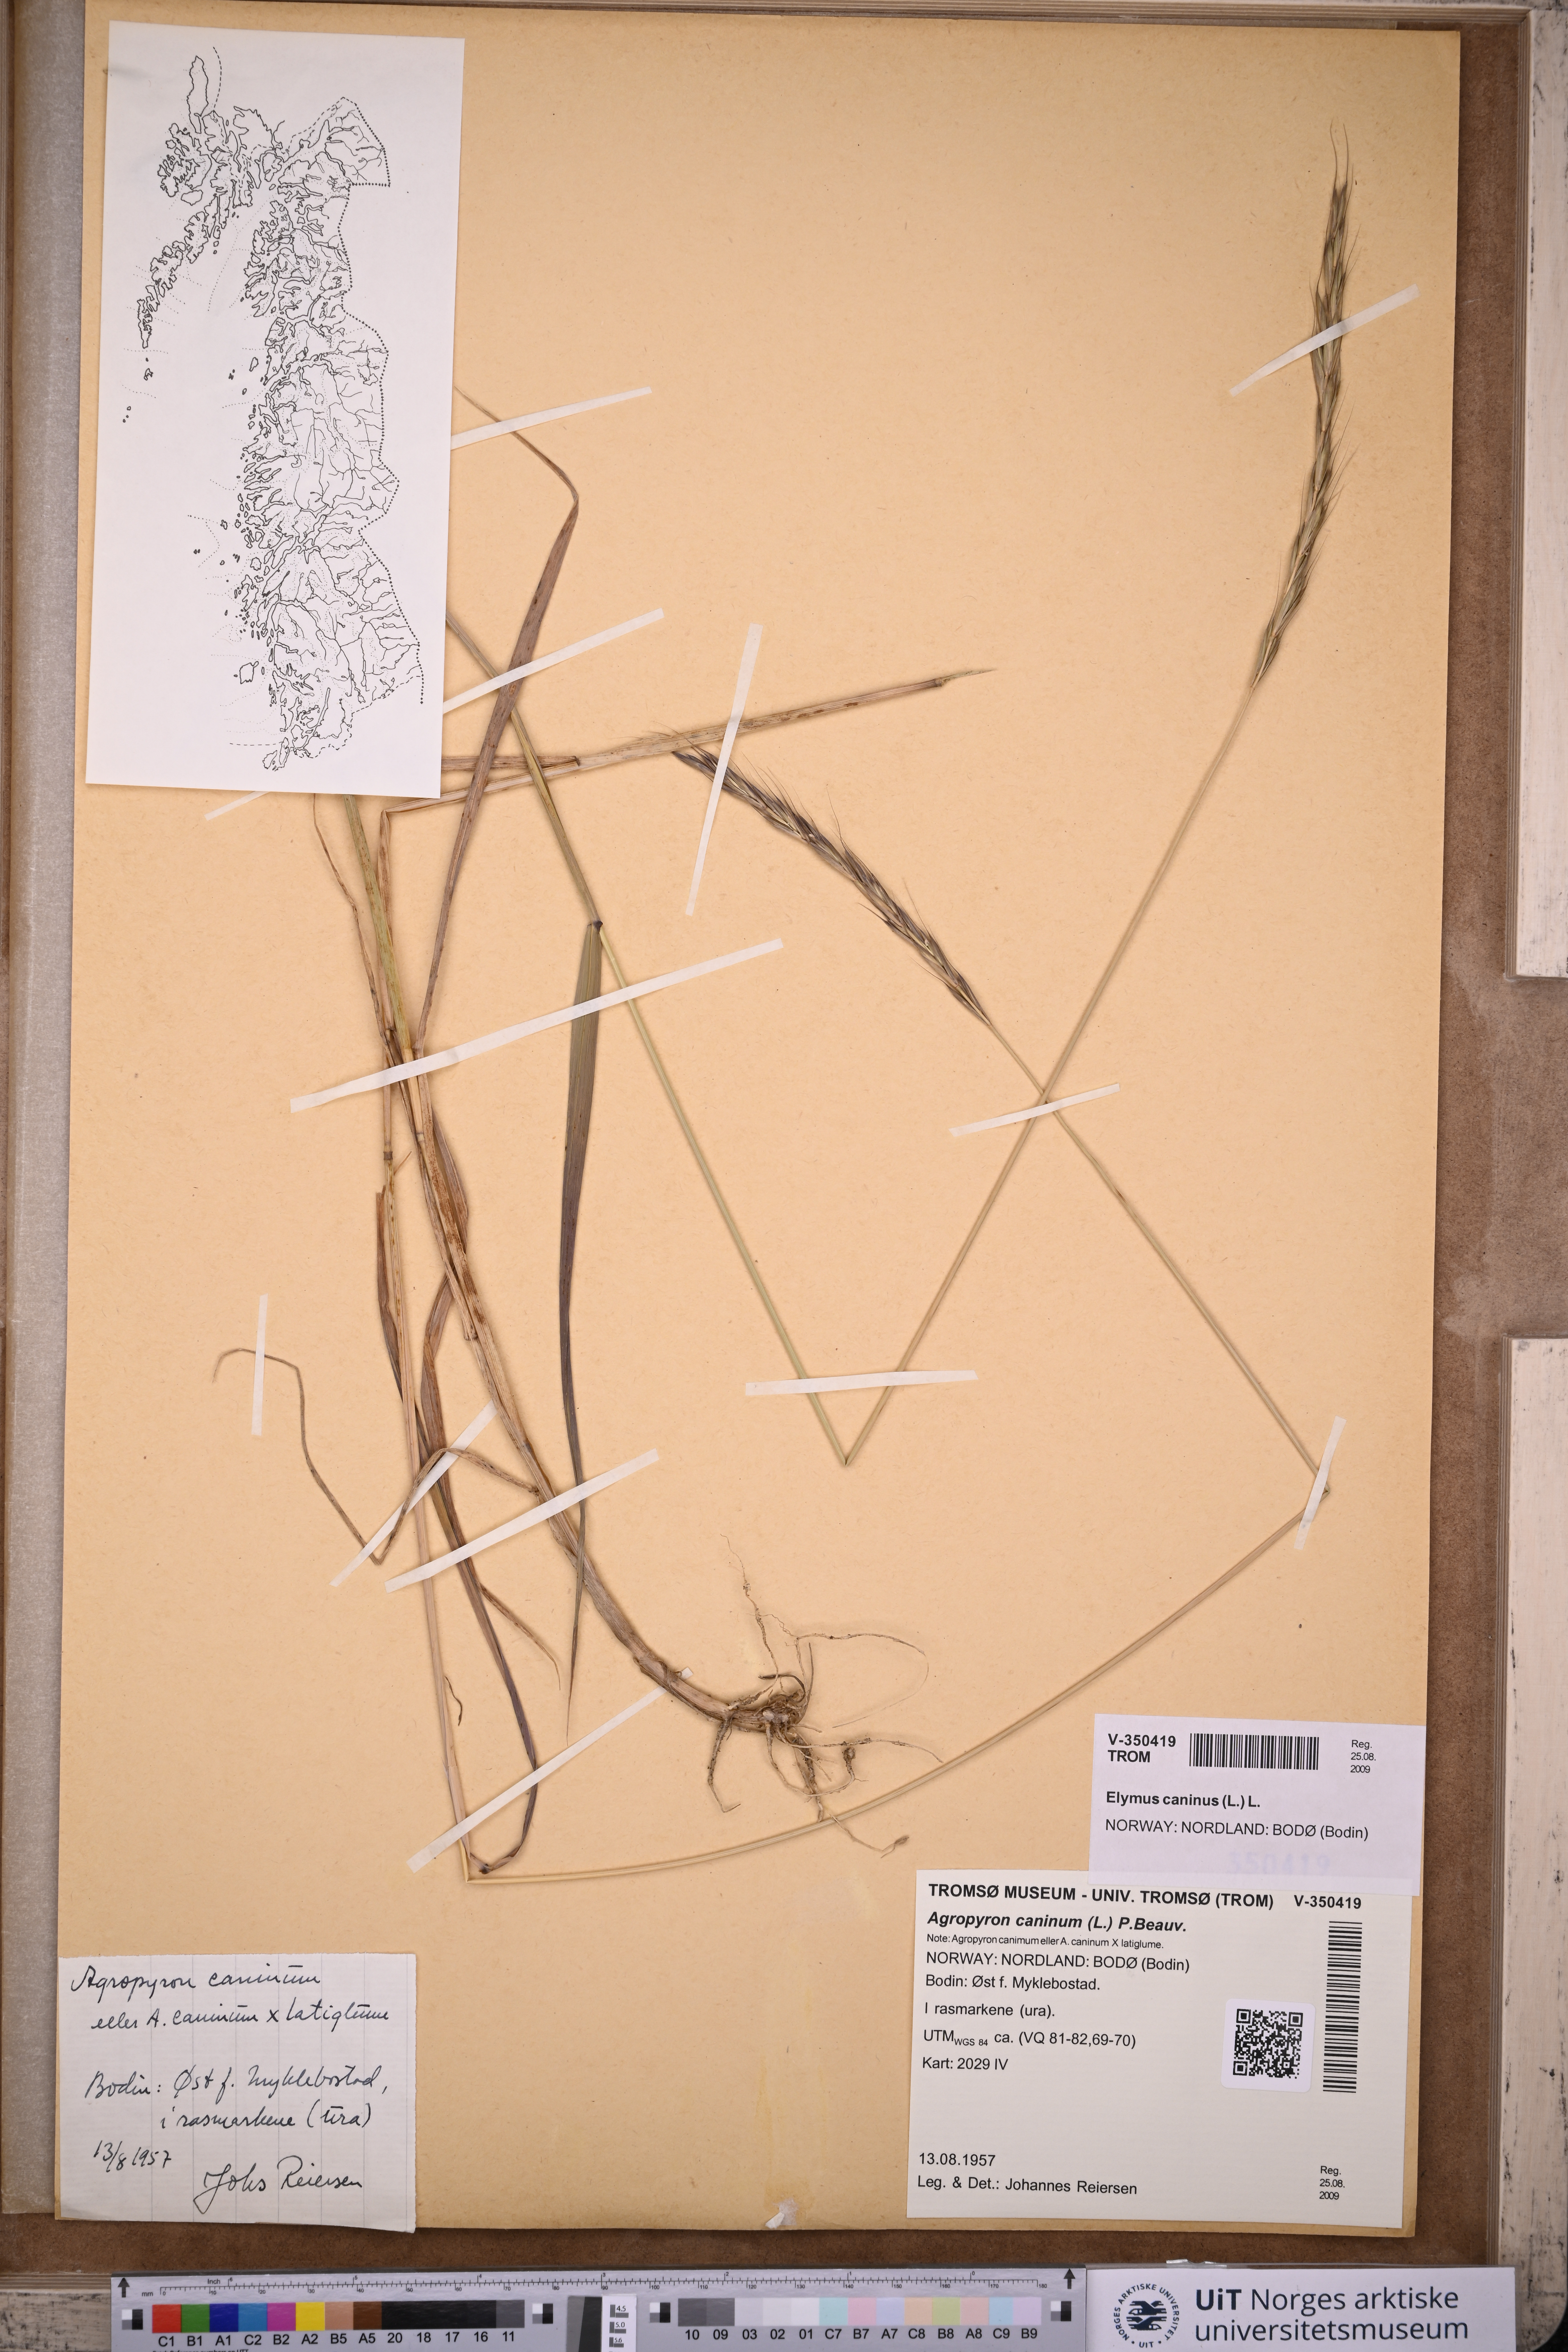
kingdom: Plantae
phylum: Tracheophyta
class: Liliopsida
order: Poales
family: Poaceae
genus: Elymus
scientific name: Elymus caninus
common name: Bearded couch
